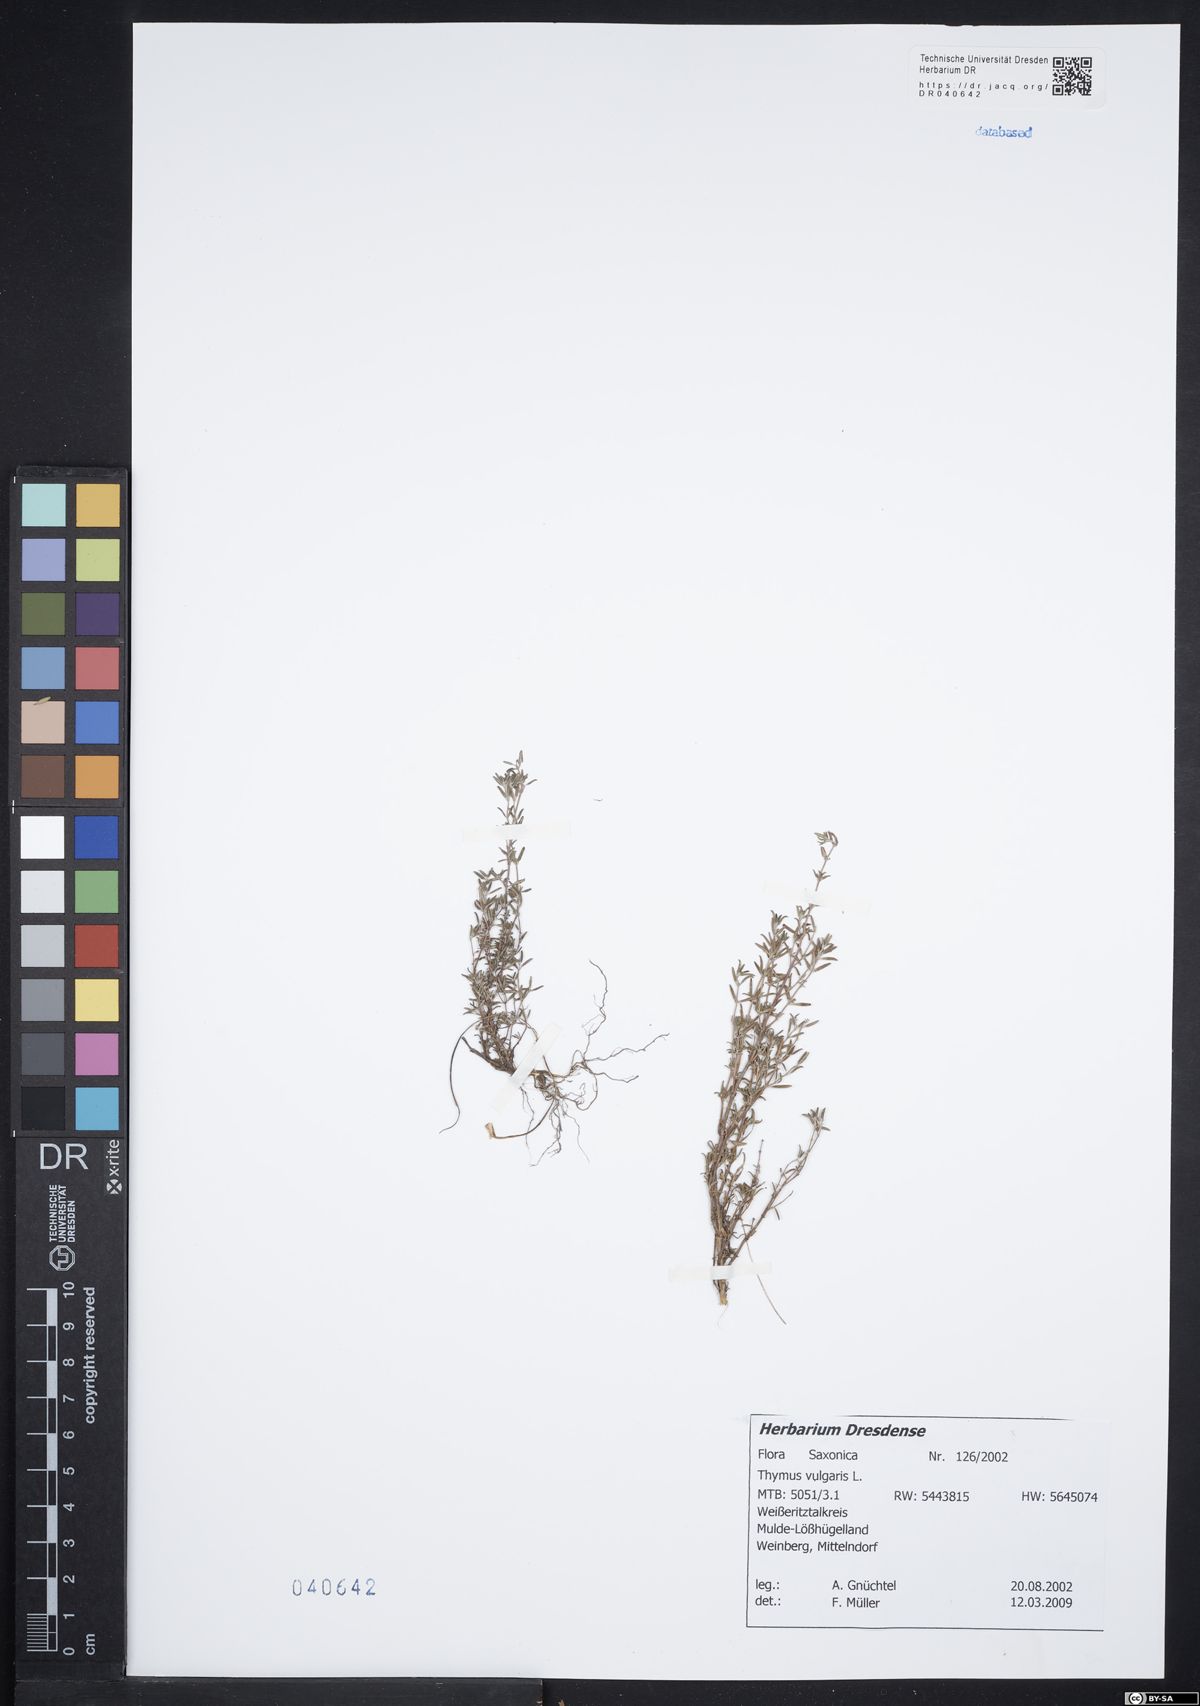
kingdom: Plantae
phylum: Tracheophyta
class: Magnoliopsida
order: Lamiales
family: Lamiaceae
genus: Thymus
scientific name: Thymus vulgaris
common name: Garden thyme
